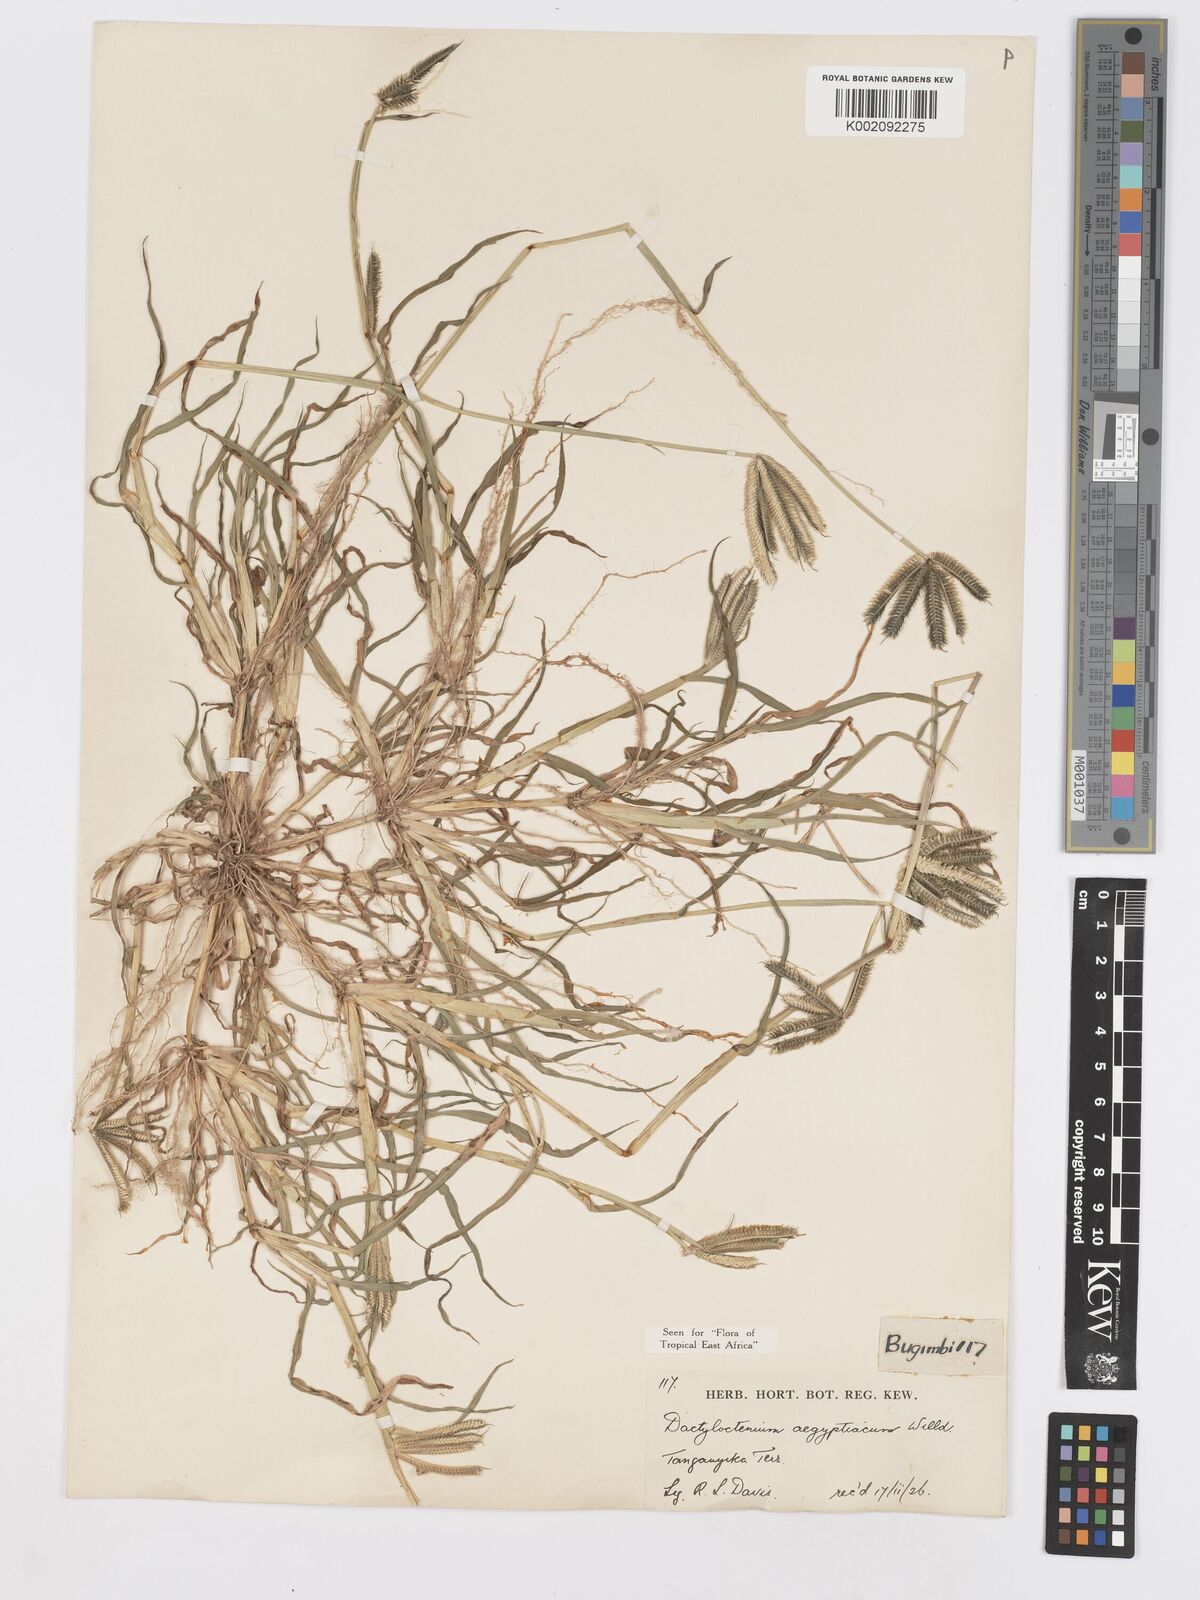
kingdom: Plantae
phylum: Tracheophyta
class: Liliopsida
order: Poales
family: Poaceae
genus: Dactyloctenium
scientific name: Dactyloctenium aegyptium
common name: Egyptian grass
